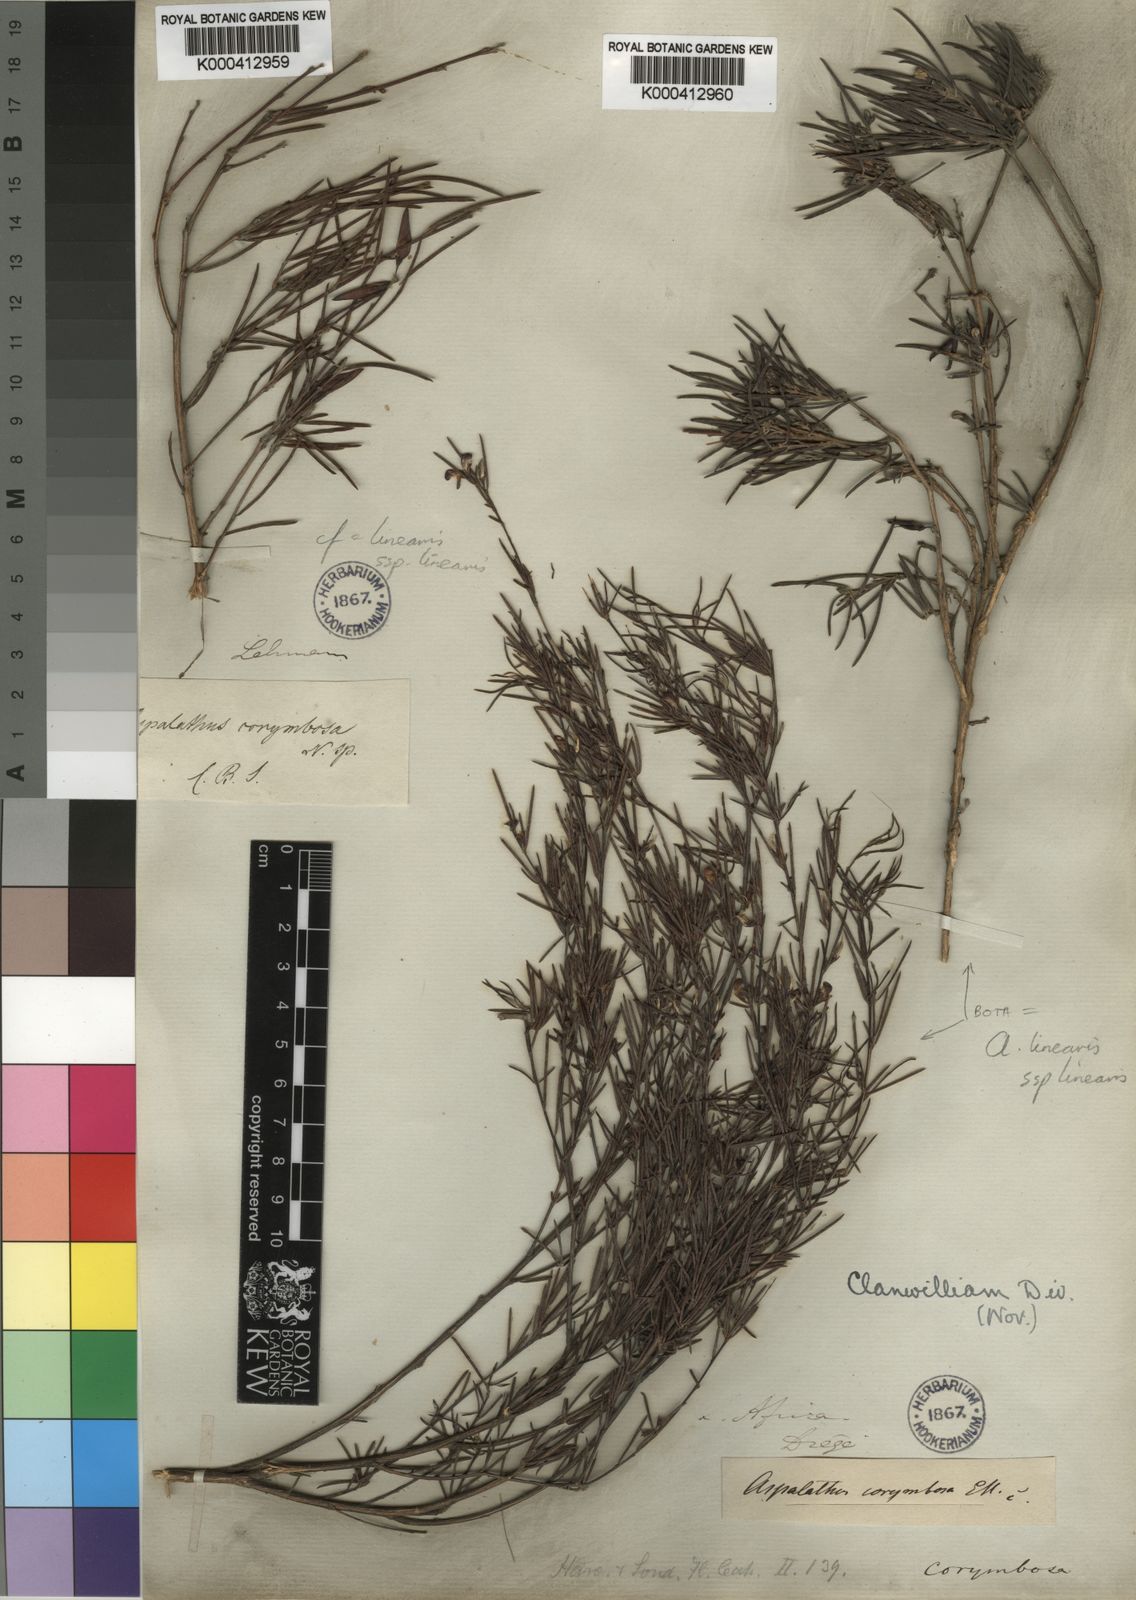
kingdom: Plantae
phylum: Tracheophyta
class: Magnoliopsida
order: Fabales
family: Fabaceae
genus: Aspalathus
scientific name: Aspalathus linearis
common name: Rooibos-tea
